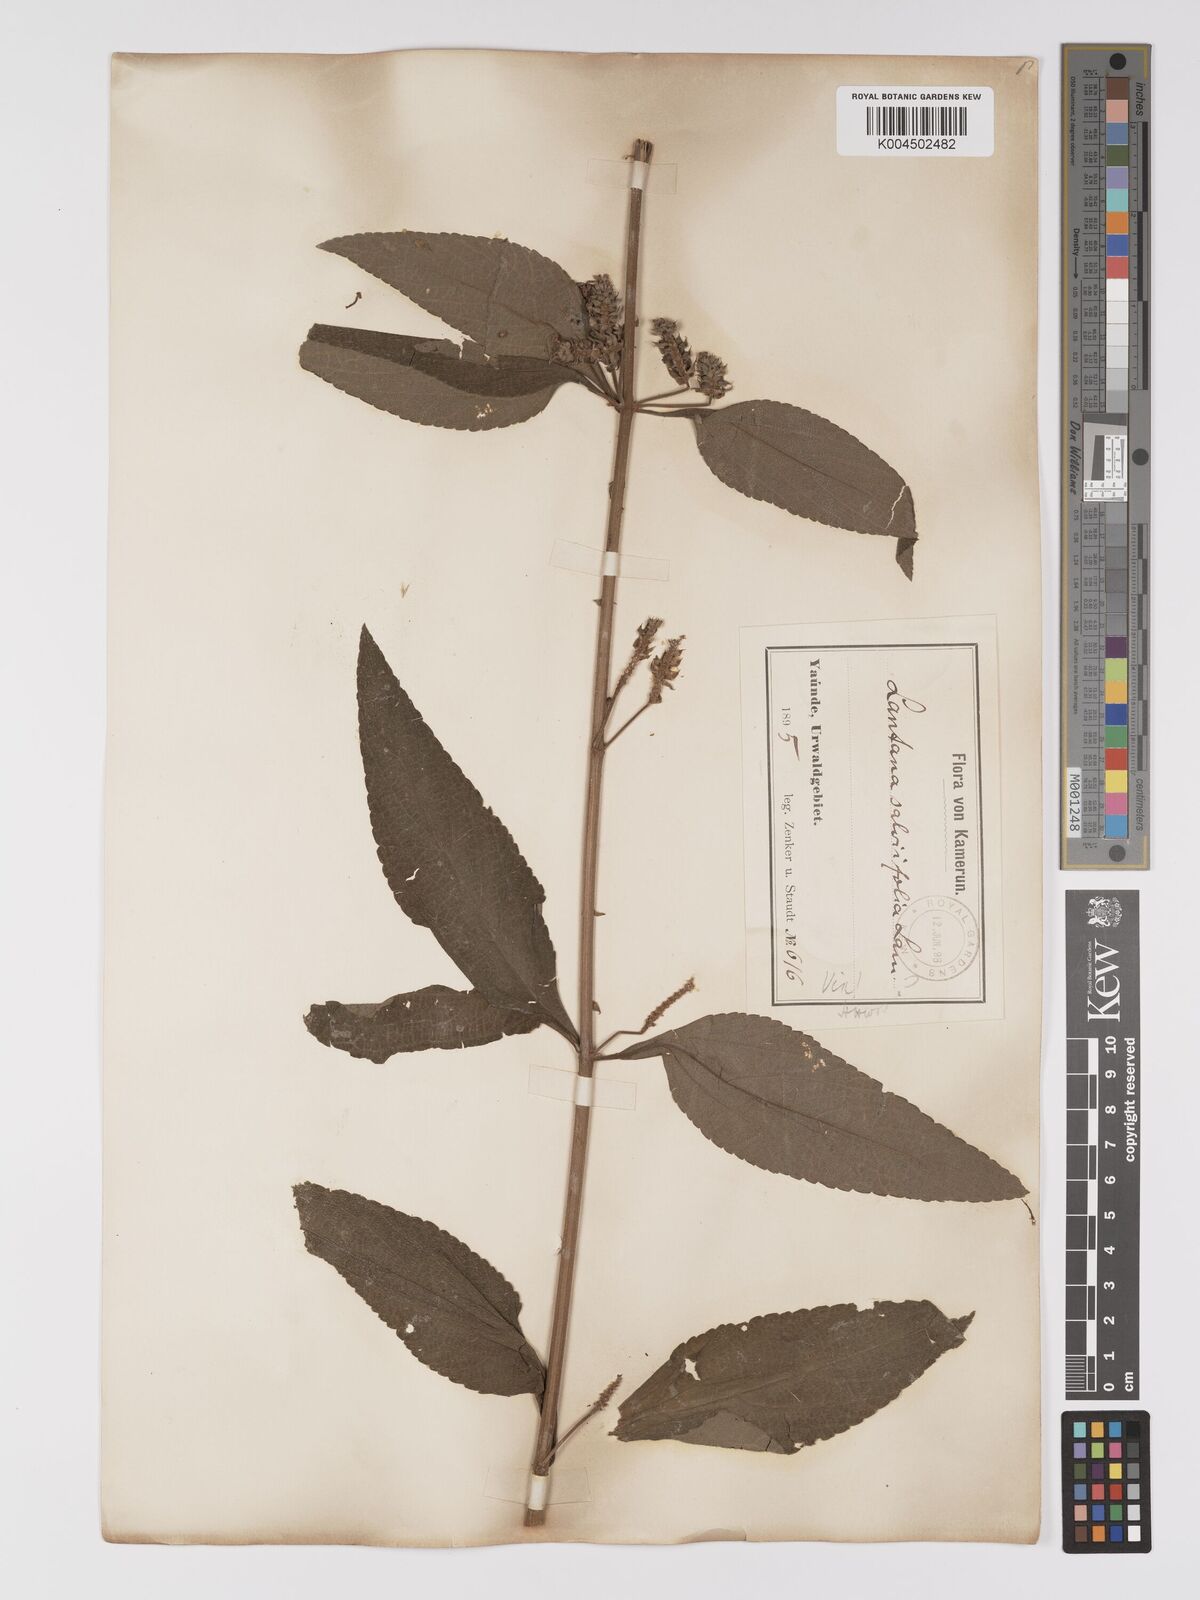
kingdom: Plantae
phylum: Tracheophyta
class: Magnoliopsida
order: Lamiales
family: Verbenaceae
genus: Lantana
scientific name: Lantana ukambensis
